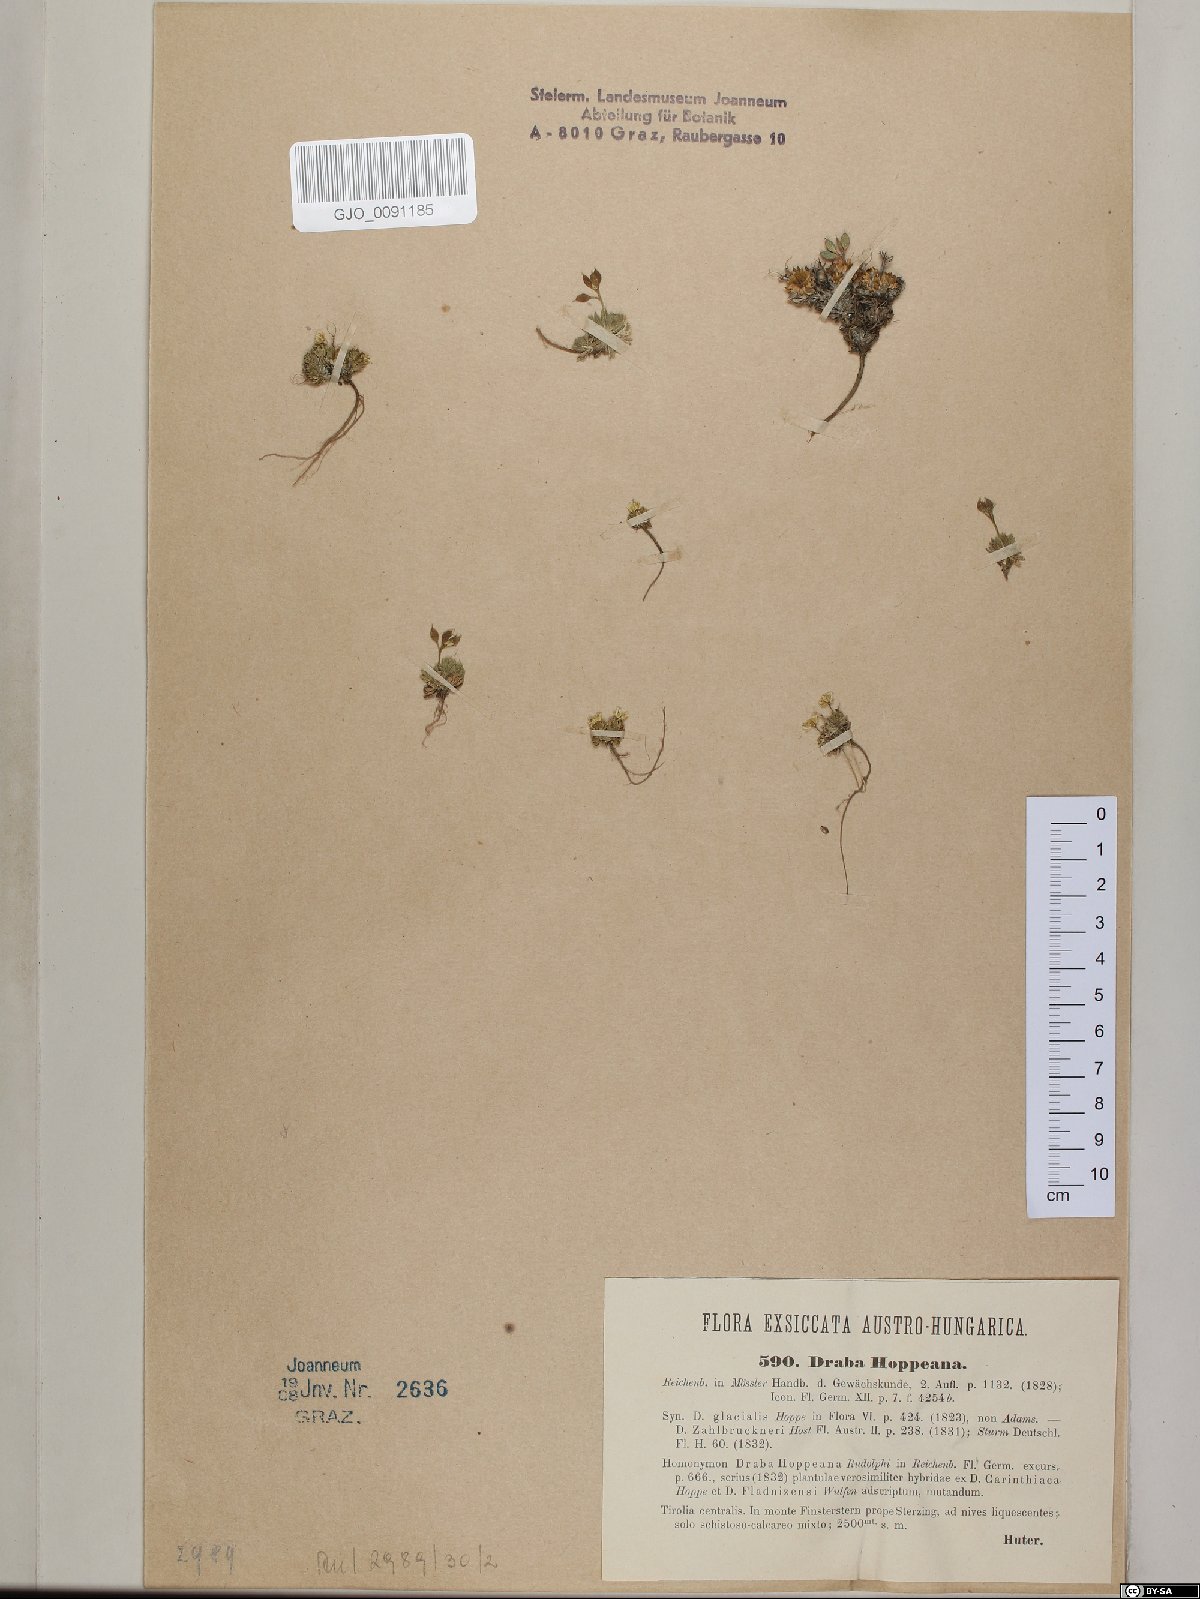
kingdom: Plantae
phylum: Tracheophyta
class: Magnoliopsida
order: Brassicales
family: Brassicaceae
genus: Draba
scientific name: Draba hoppeana
